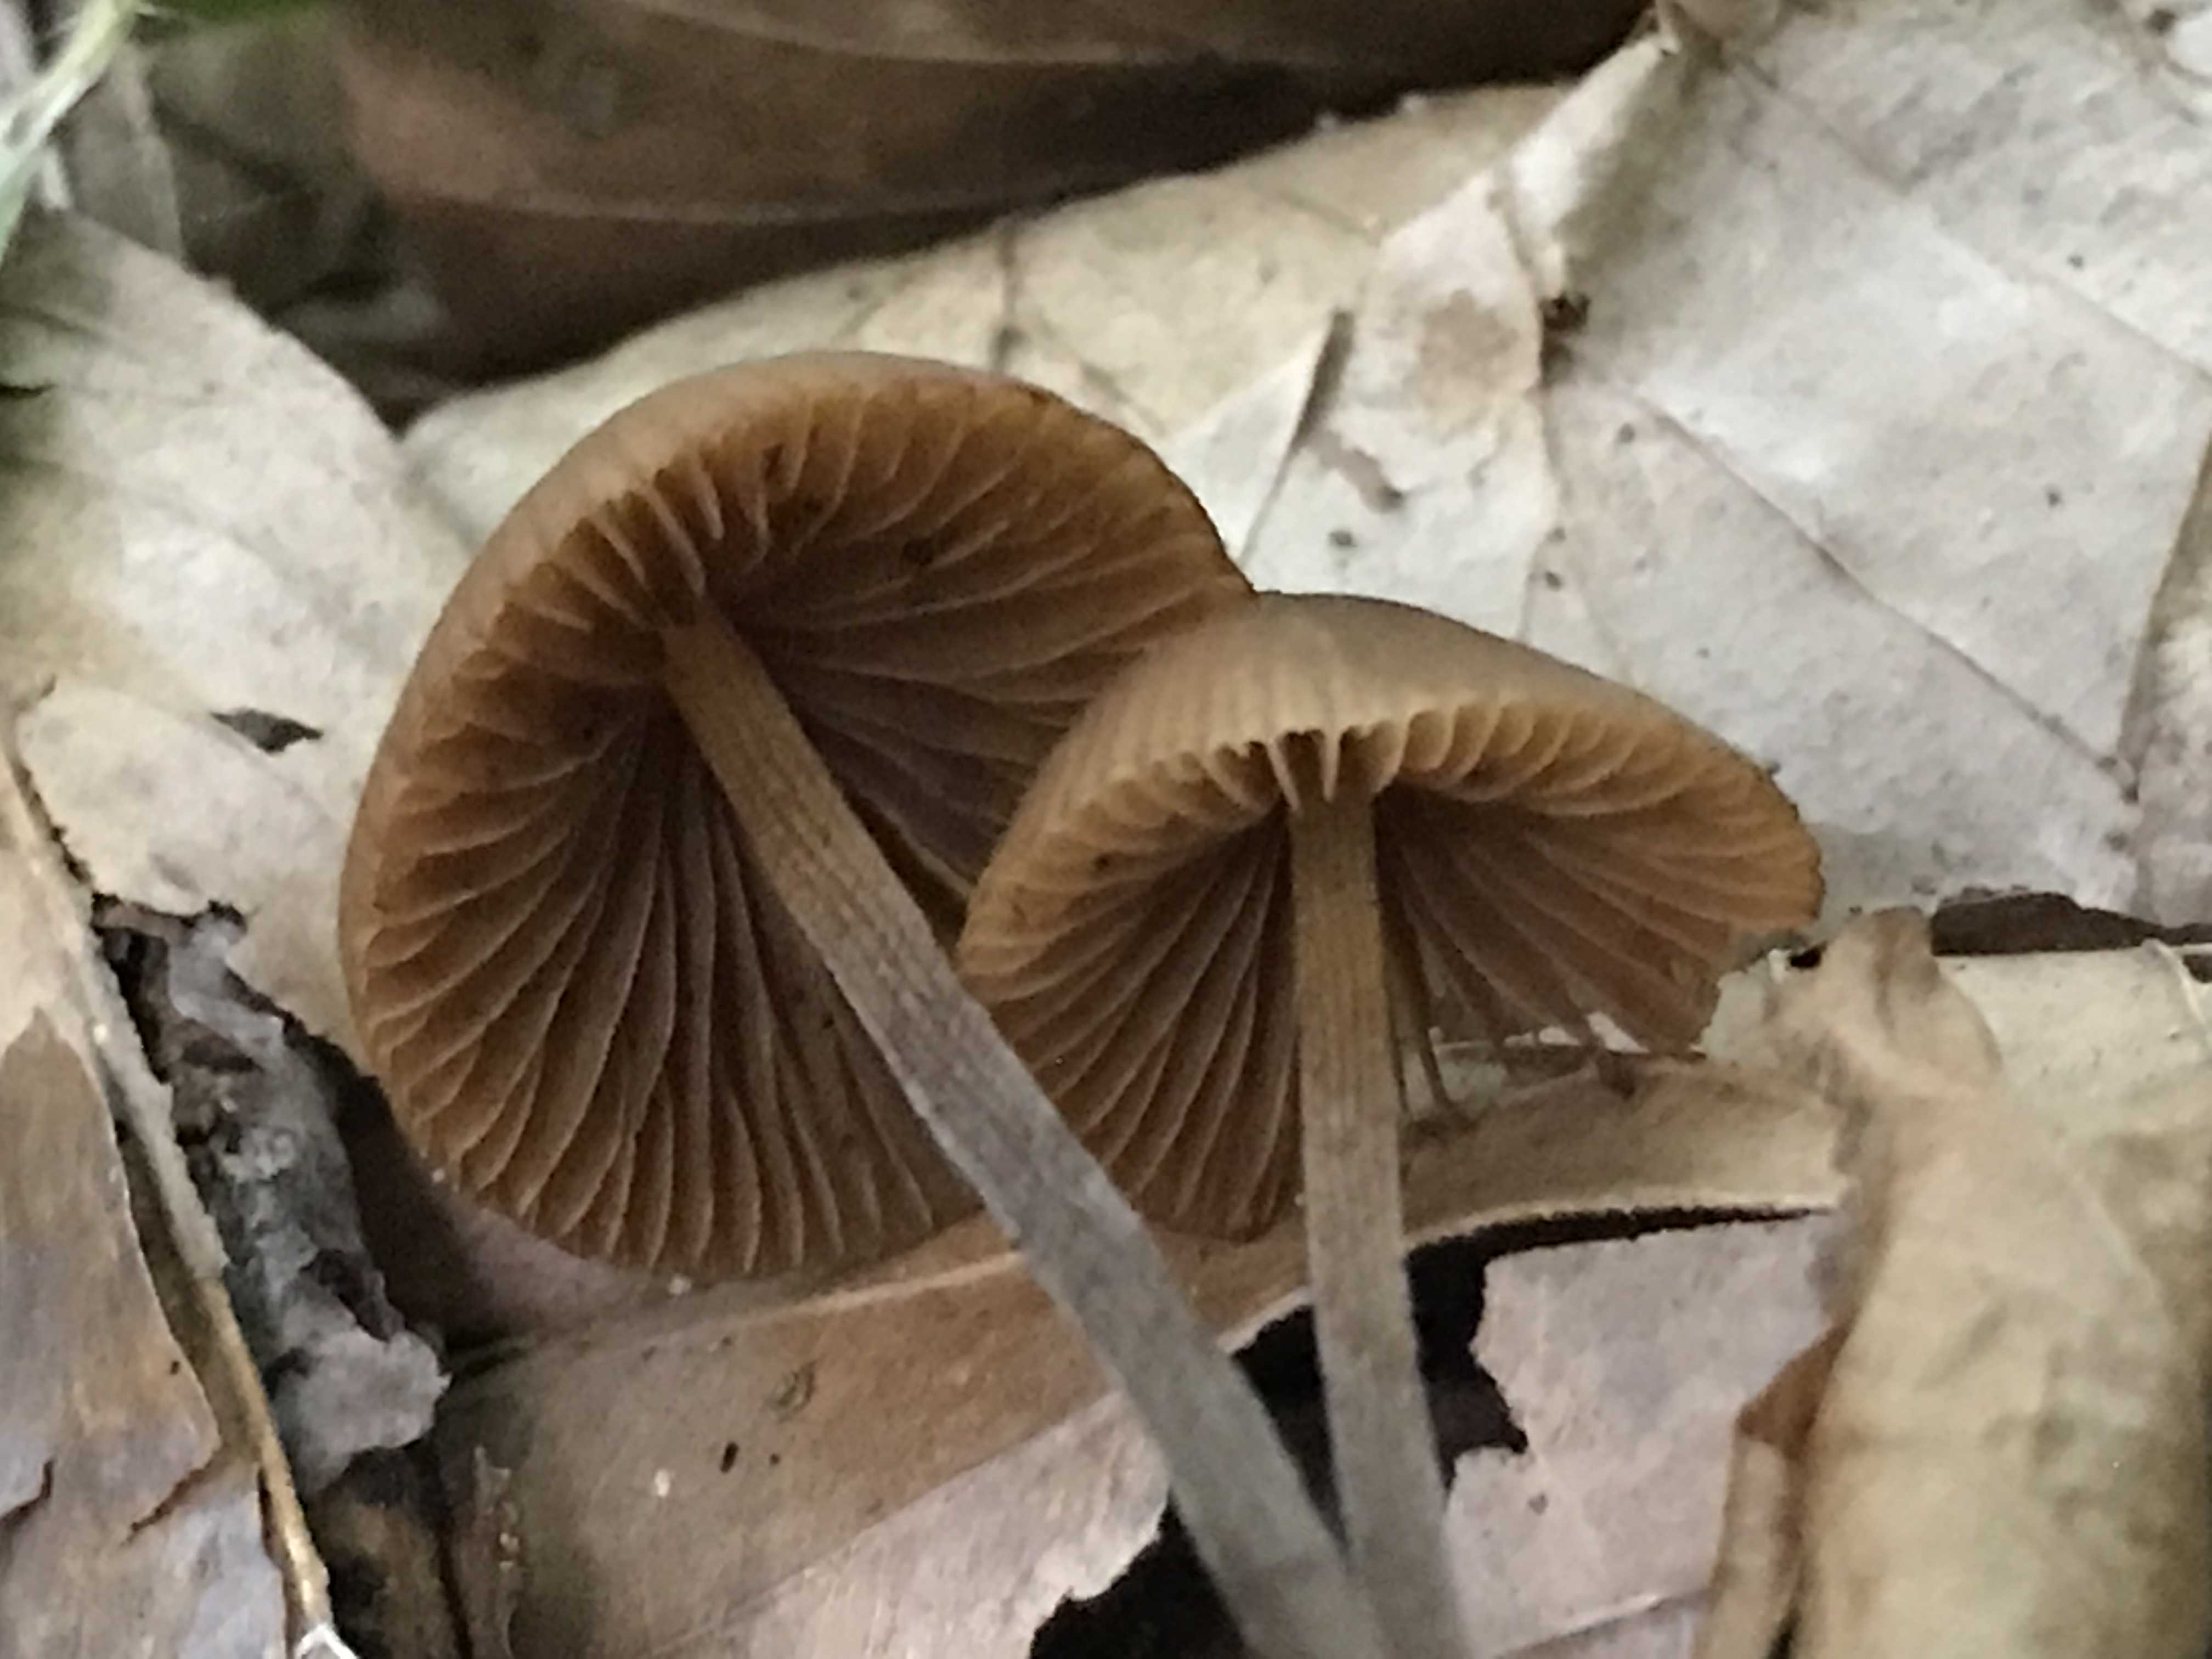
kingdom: Fungi
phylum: Basidiomycota
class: Agaricomycetes
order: Agaricales
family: Bolbitiaceae
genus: Conocybe
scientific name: Conocybe subpubescens
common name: krat-keglehat
